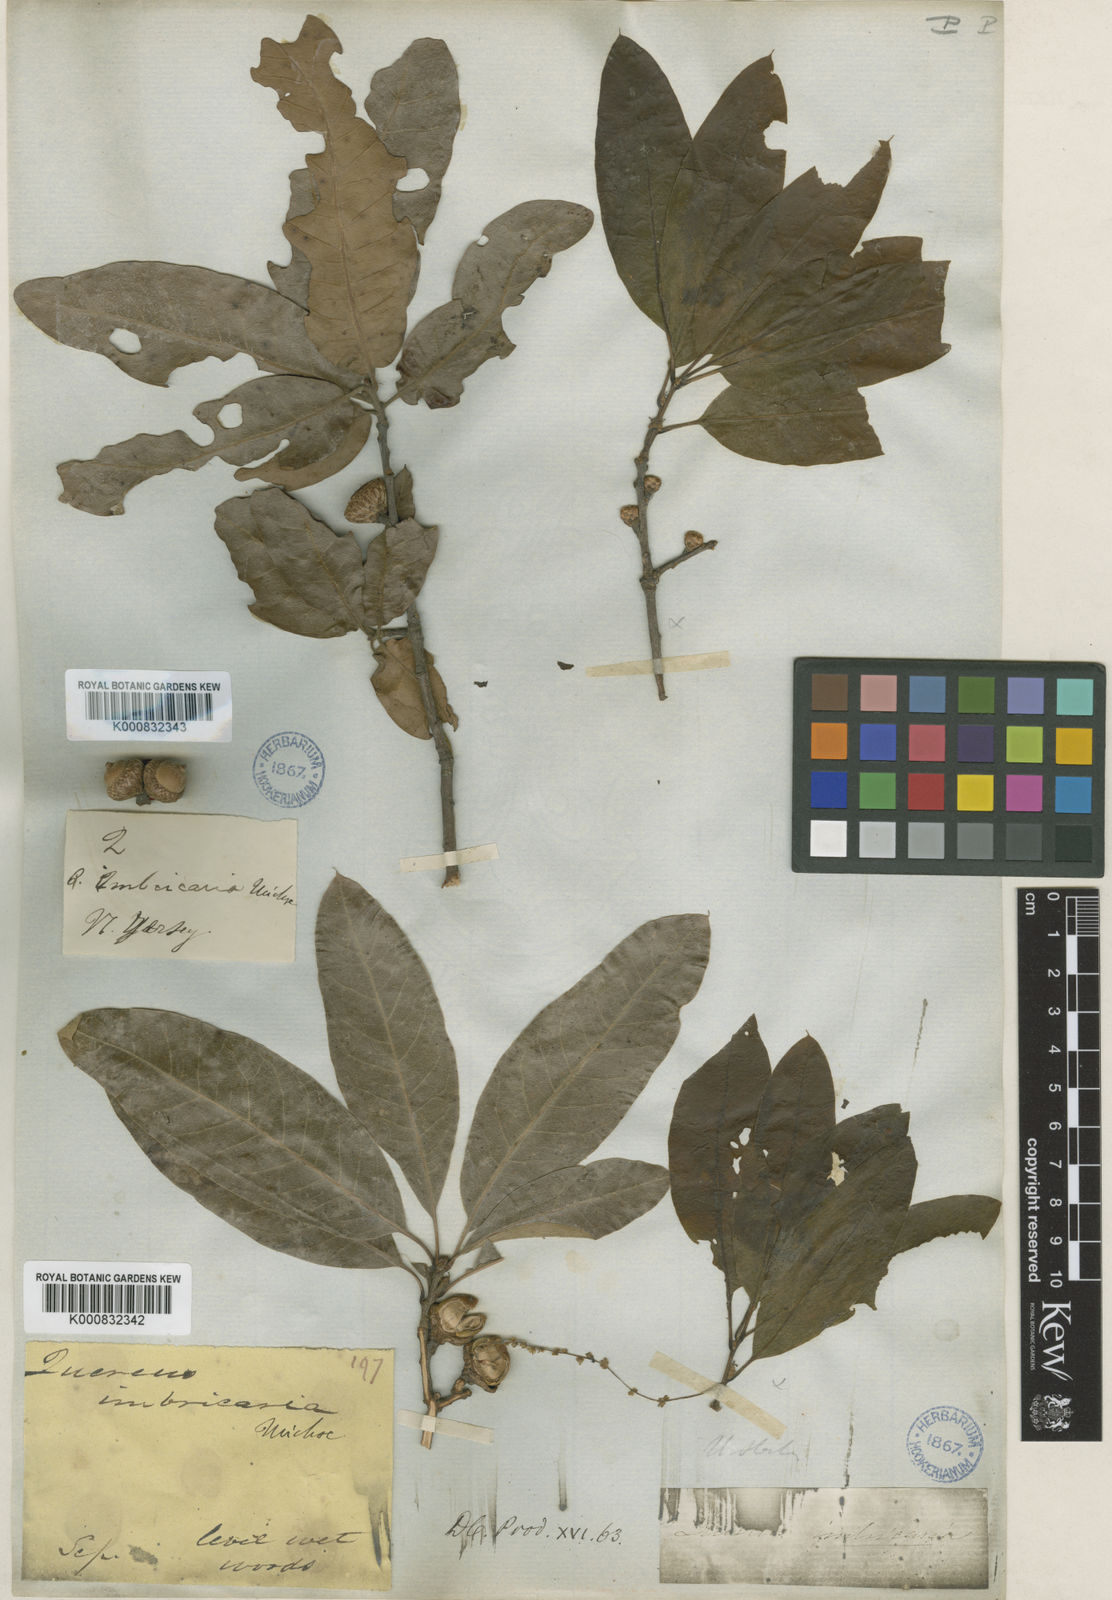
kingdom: Plantae
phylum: Tracheophyta
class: Magnoliopsida
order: Fagales
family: Fagaceae
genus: Quercus
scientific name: Quercus imbricaria
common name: Shingle oak
